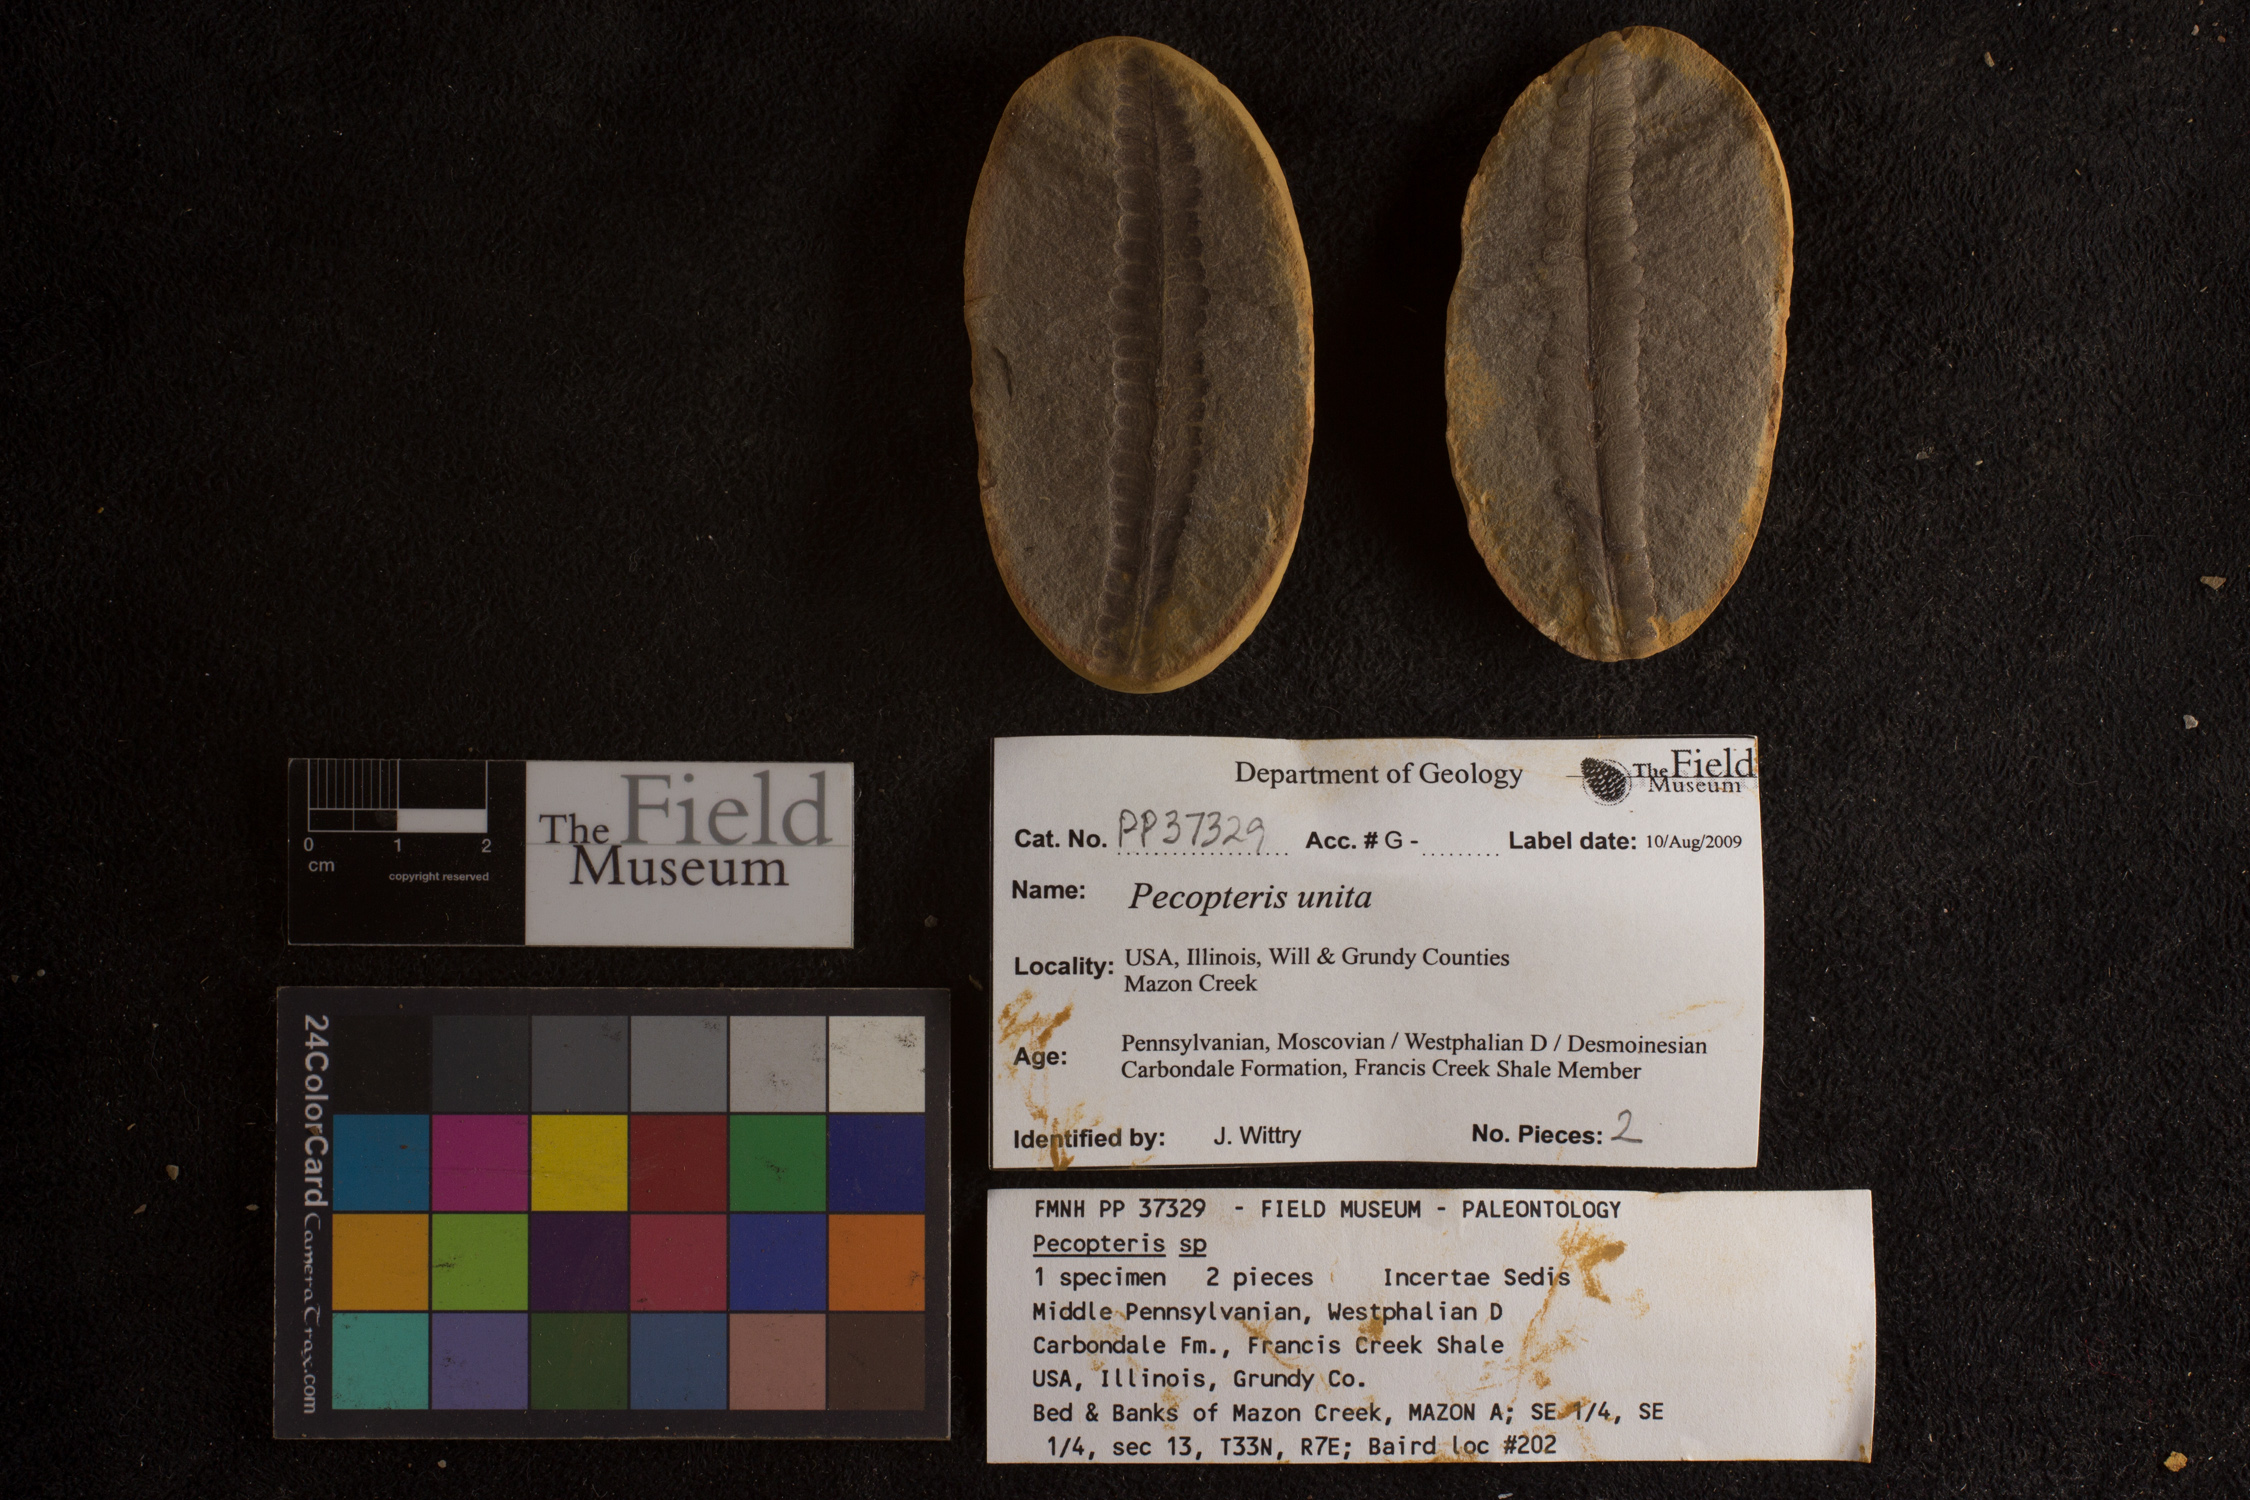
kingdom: Plantae
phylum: Tracheophyta
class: Polypodiopsida
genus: Diplazites
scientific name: Diplazites
